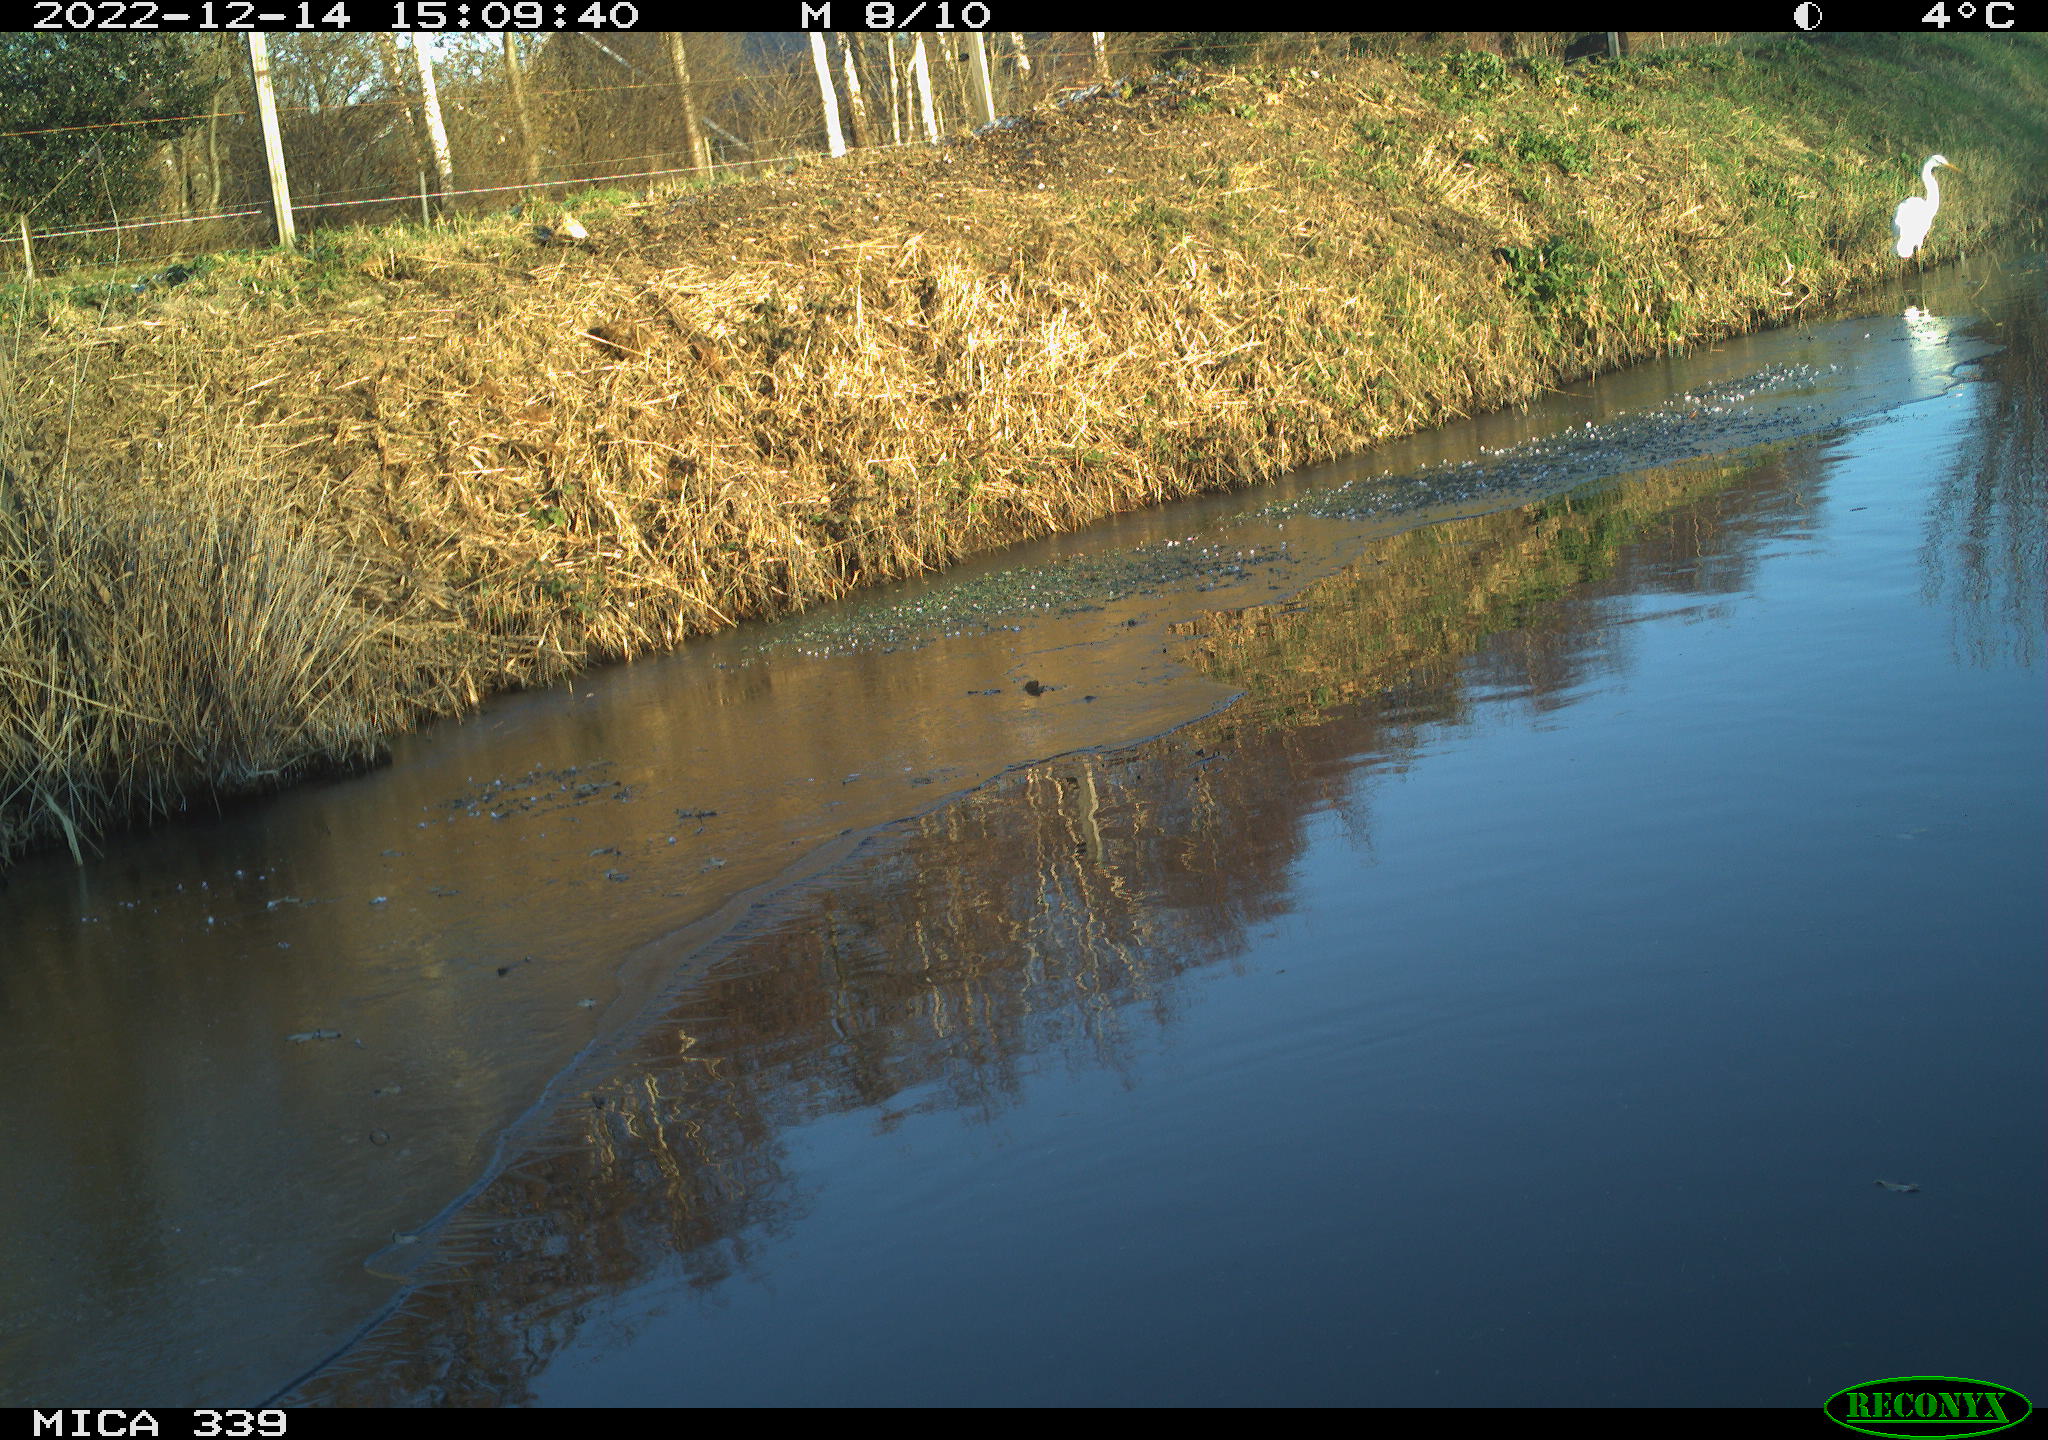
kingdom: Animalia
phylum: Chordata
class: Aves
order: Pelecaniformes
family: Ardeidae
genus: Ardea
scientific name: Ardea alba
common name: Great egret
